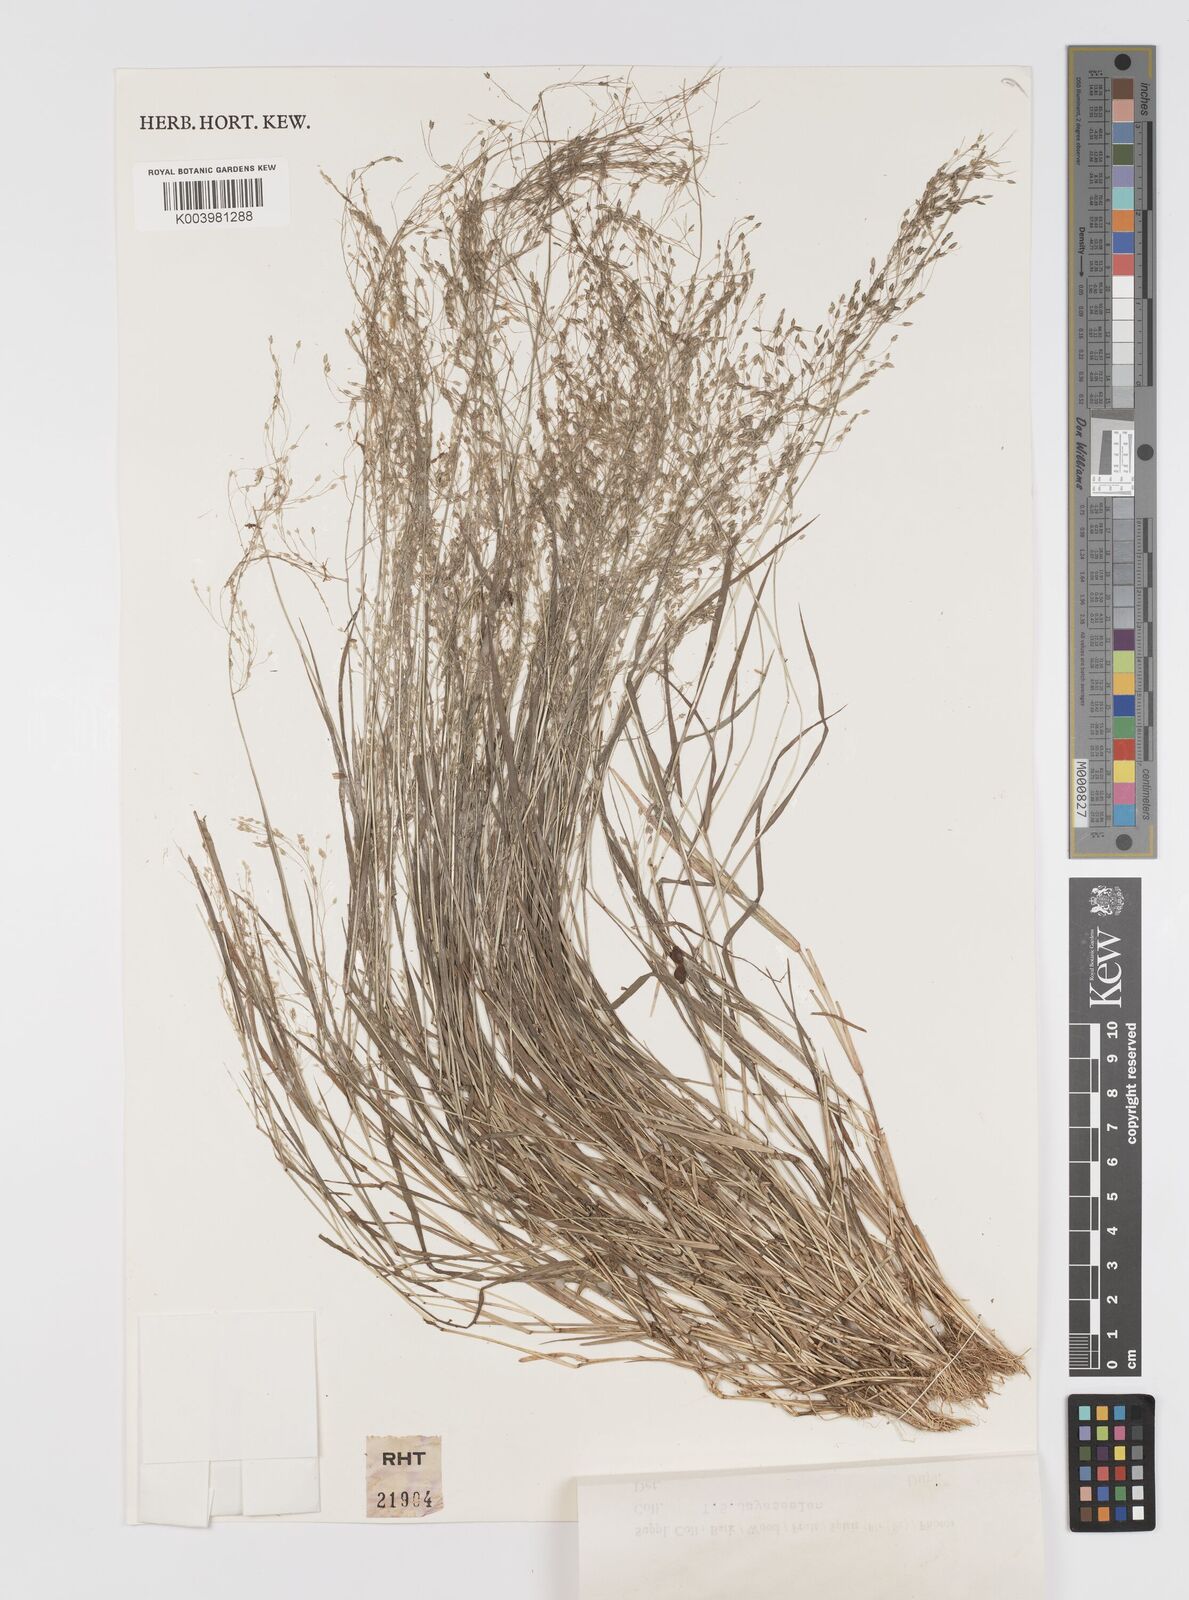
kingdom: Plantae
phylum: Tracheophyta
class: Liliopsida
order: Poales
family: Poaceae
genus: Eragrostis
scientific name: Eragrostis gangetica
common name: Slimflower lovegrass
